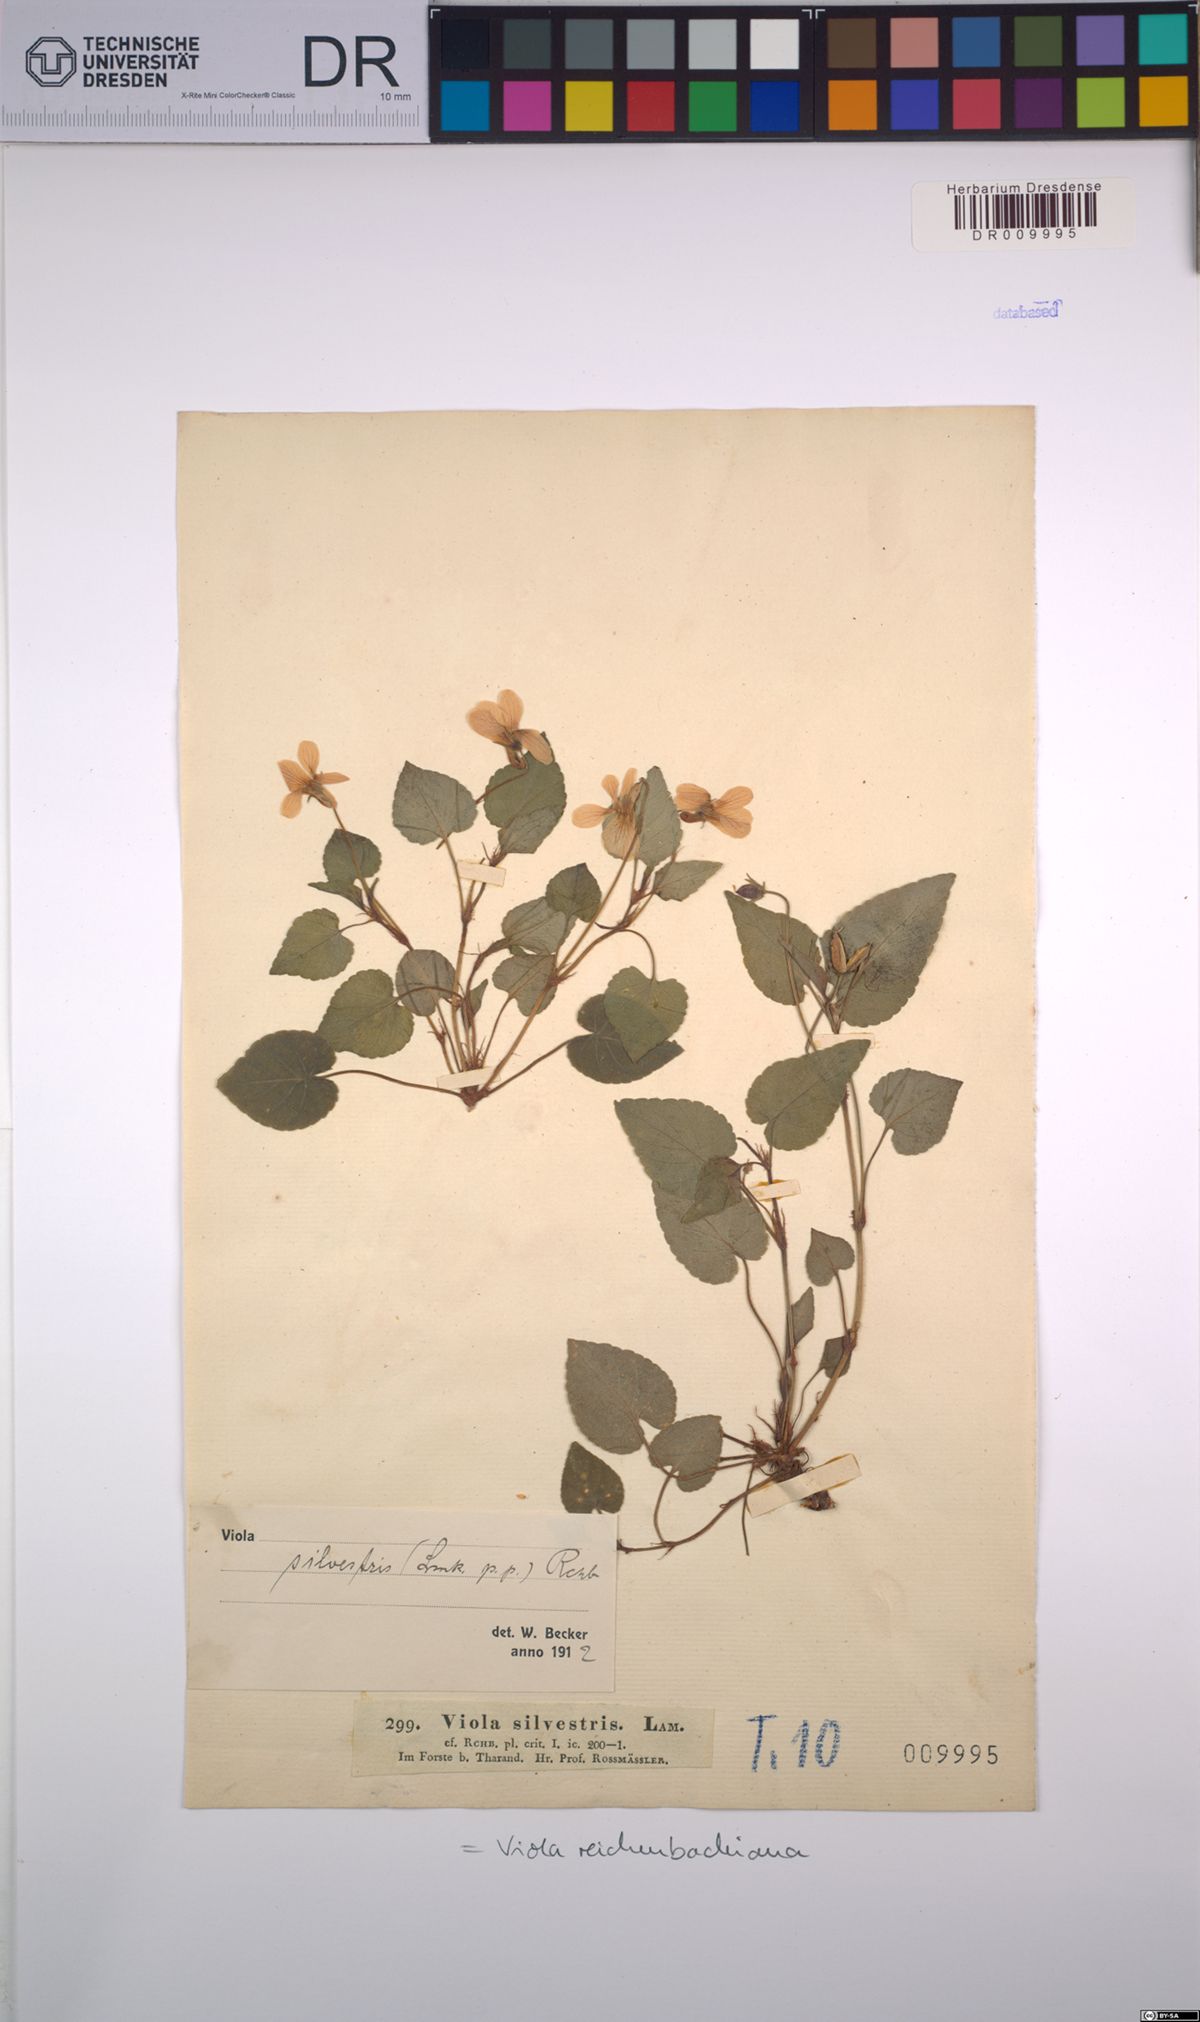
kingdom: Plantae
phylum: Tracheophyta
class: Magnoliopsida
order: Malpighiales
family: Violaceae
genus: Viola
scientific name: Viola reichenbachiana
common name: Early dog-violet
